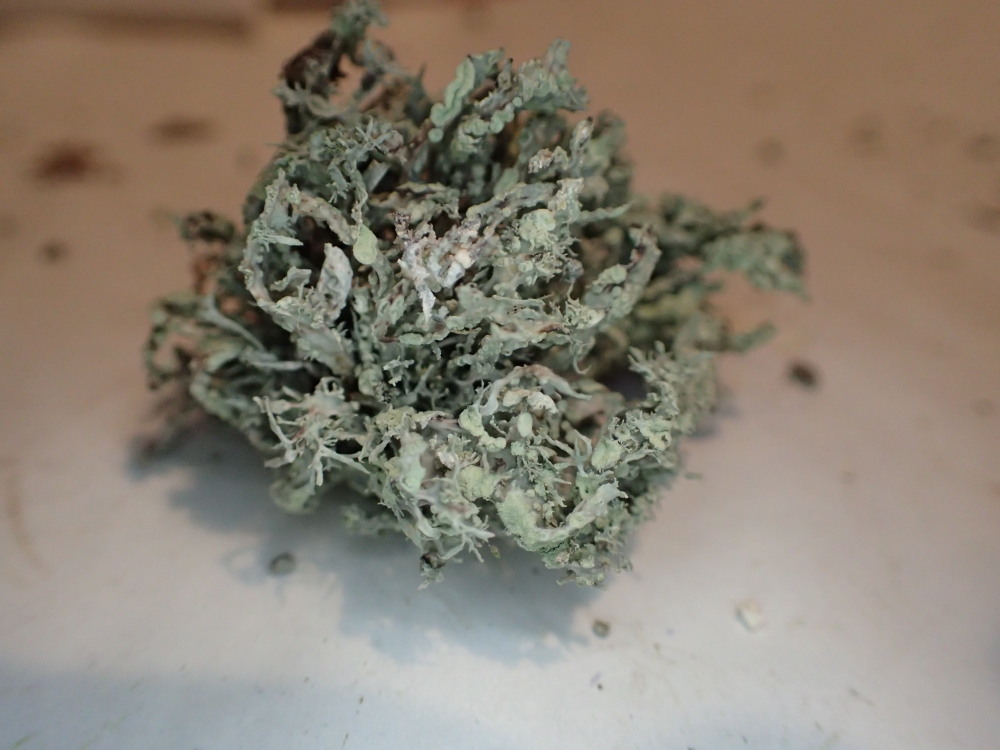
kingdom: Fungi
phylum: Ascomycota
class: Lecanoromycetes
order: Lecanorales
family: Ramalinaceae
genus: Ramalina
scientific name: Ramalina farinacea
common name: melet grenlav
